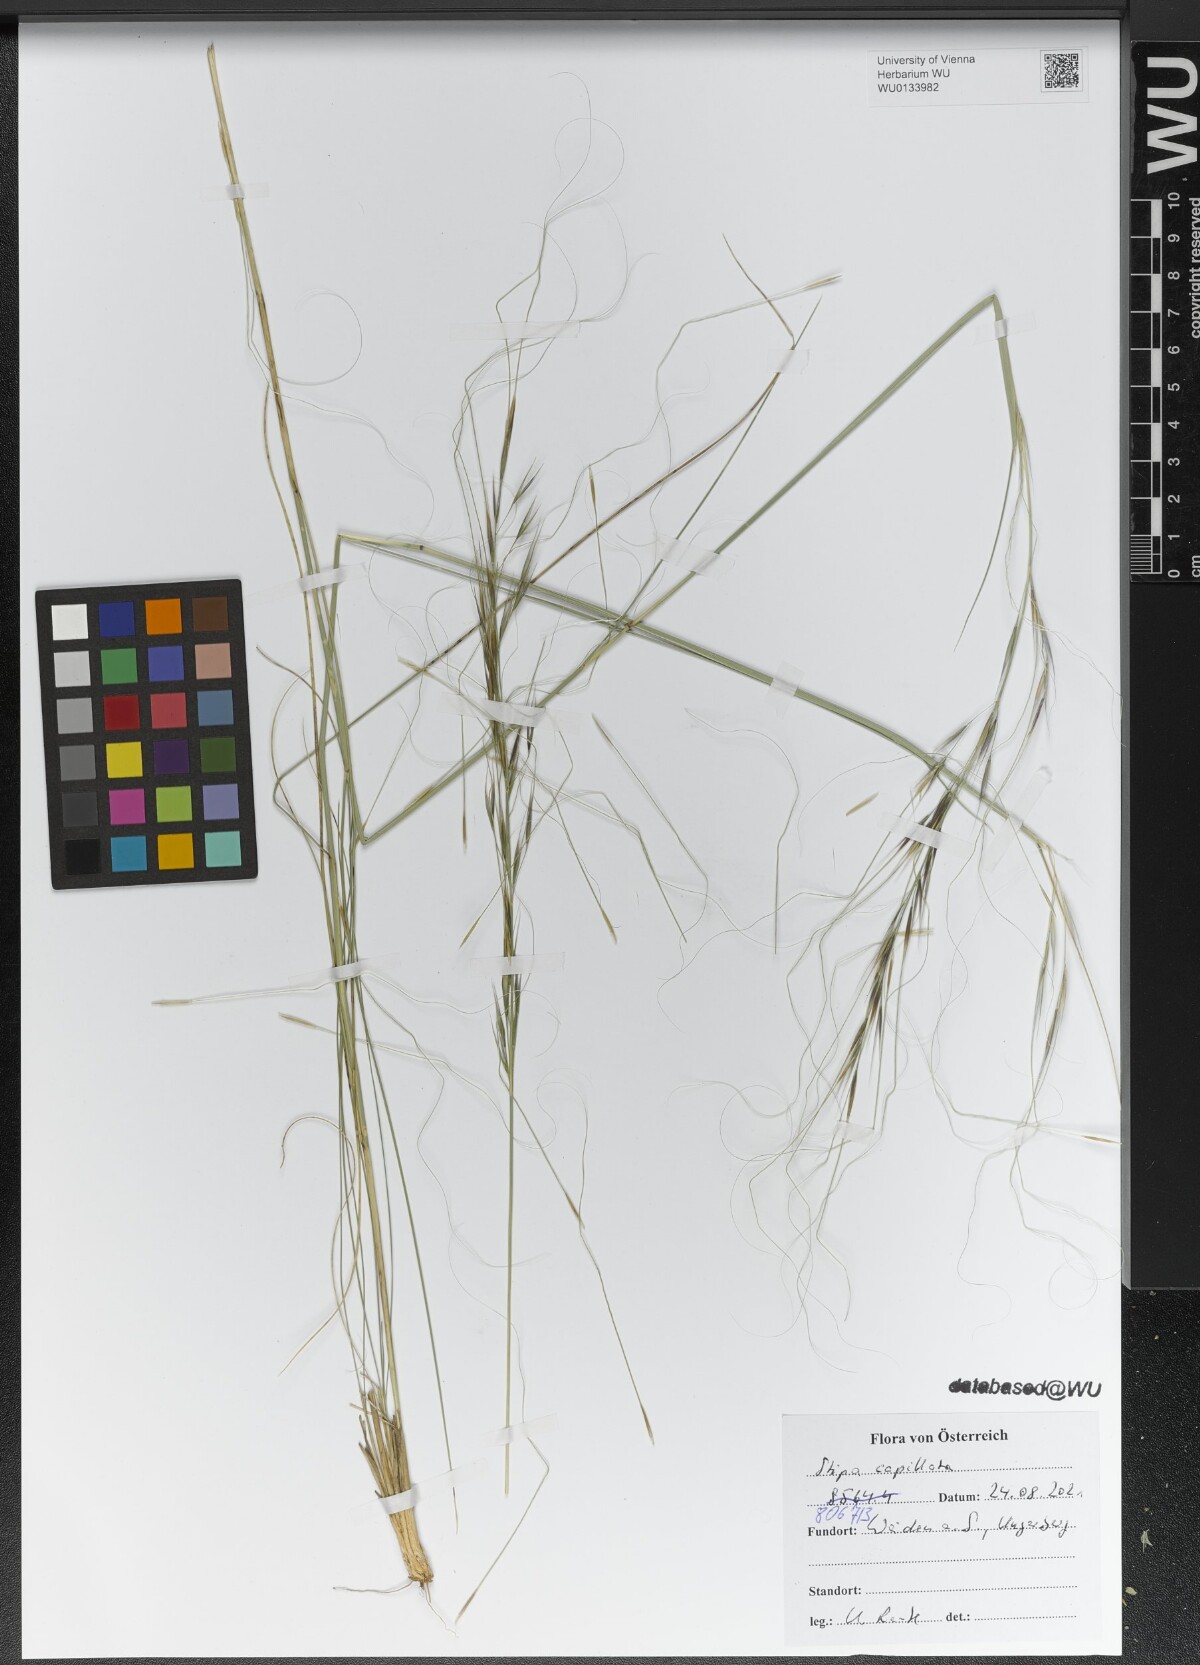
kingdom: Plantae
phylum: Tracheophyta
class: Liliopsida
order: Poales
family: Poaceae
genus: Stipa
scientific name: Stipa capillata
